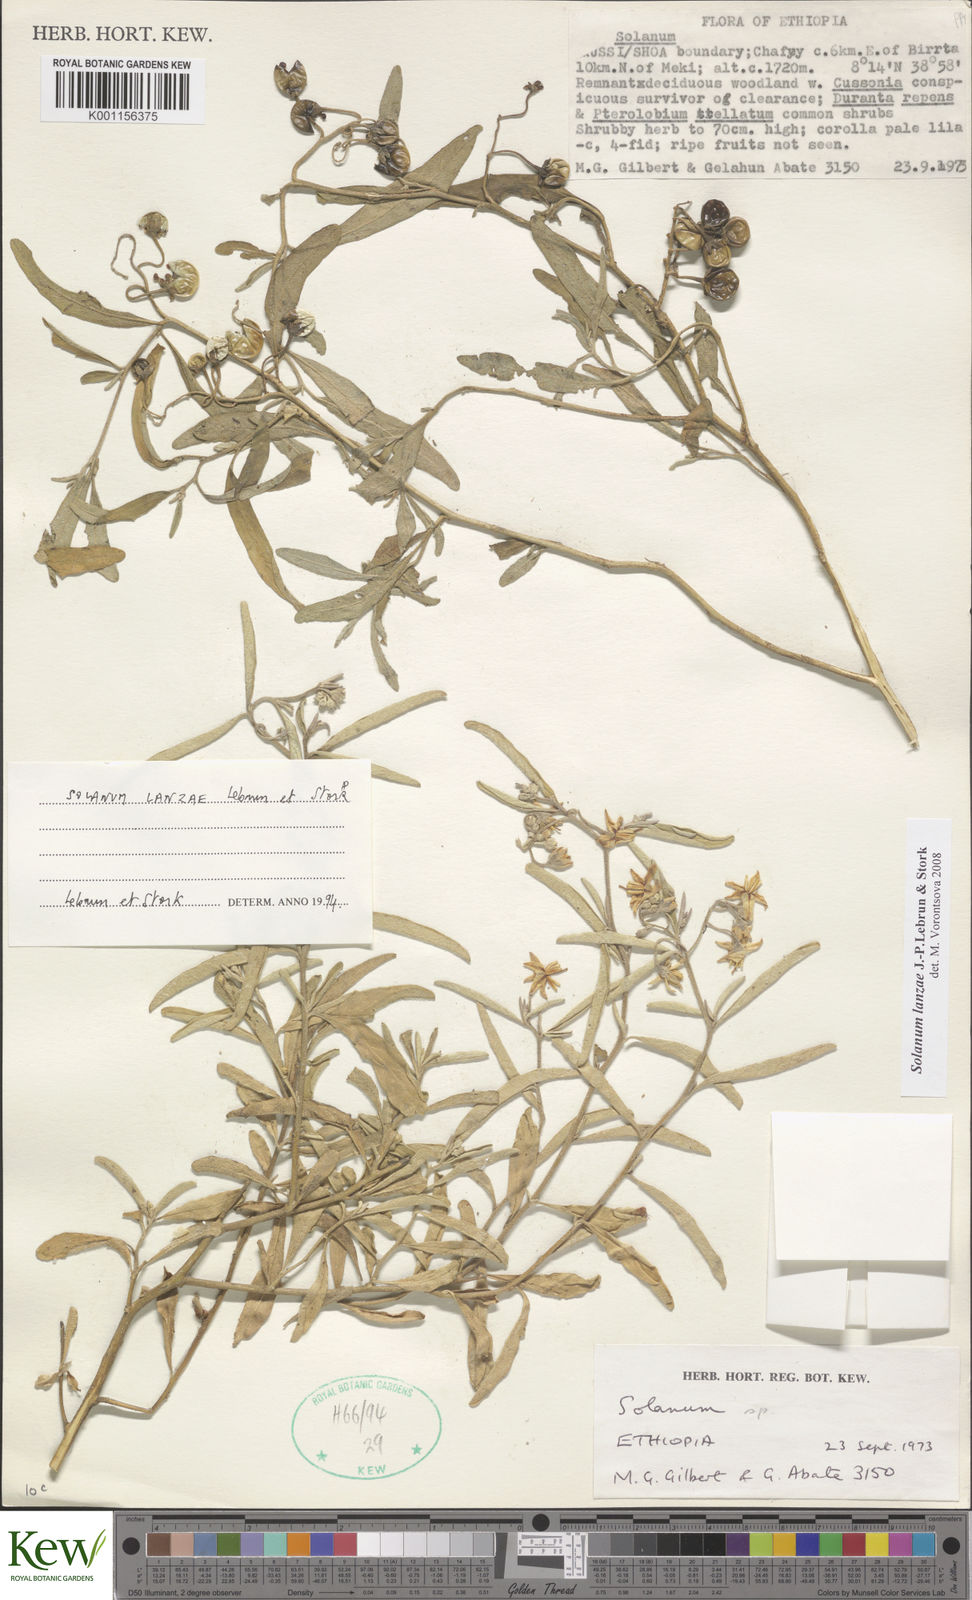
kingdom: Plantae
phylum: Tracheophyta
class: Magnoliopsida
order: Solanales
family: Solanaceae
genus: Solanum
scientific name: Solanum lanzae
